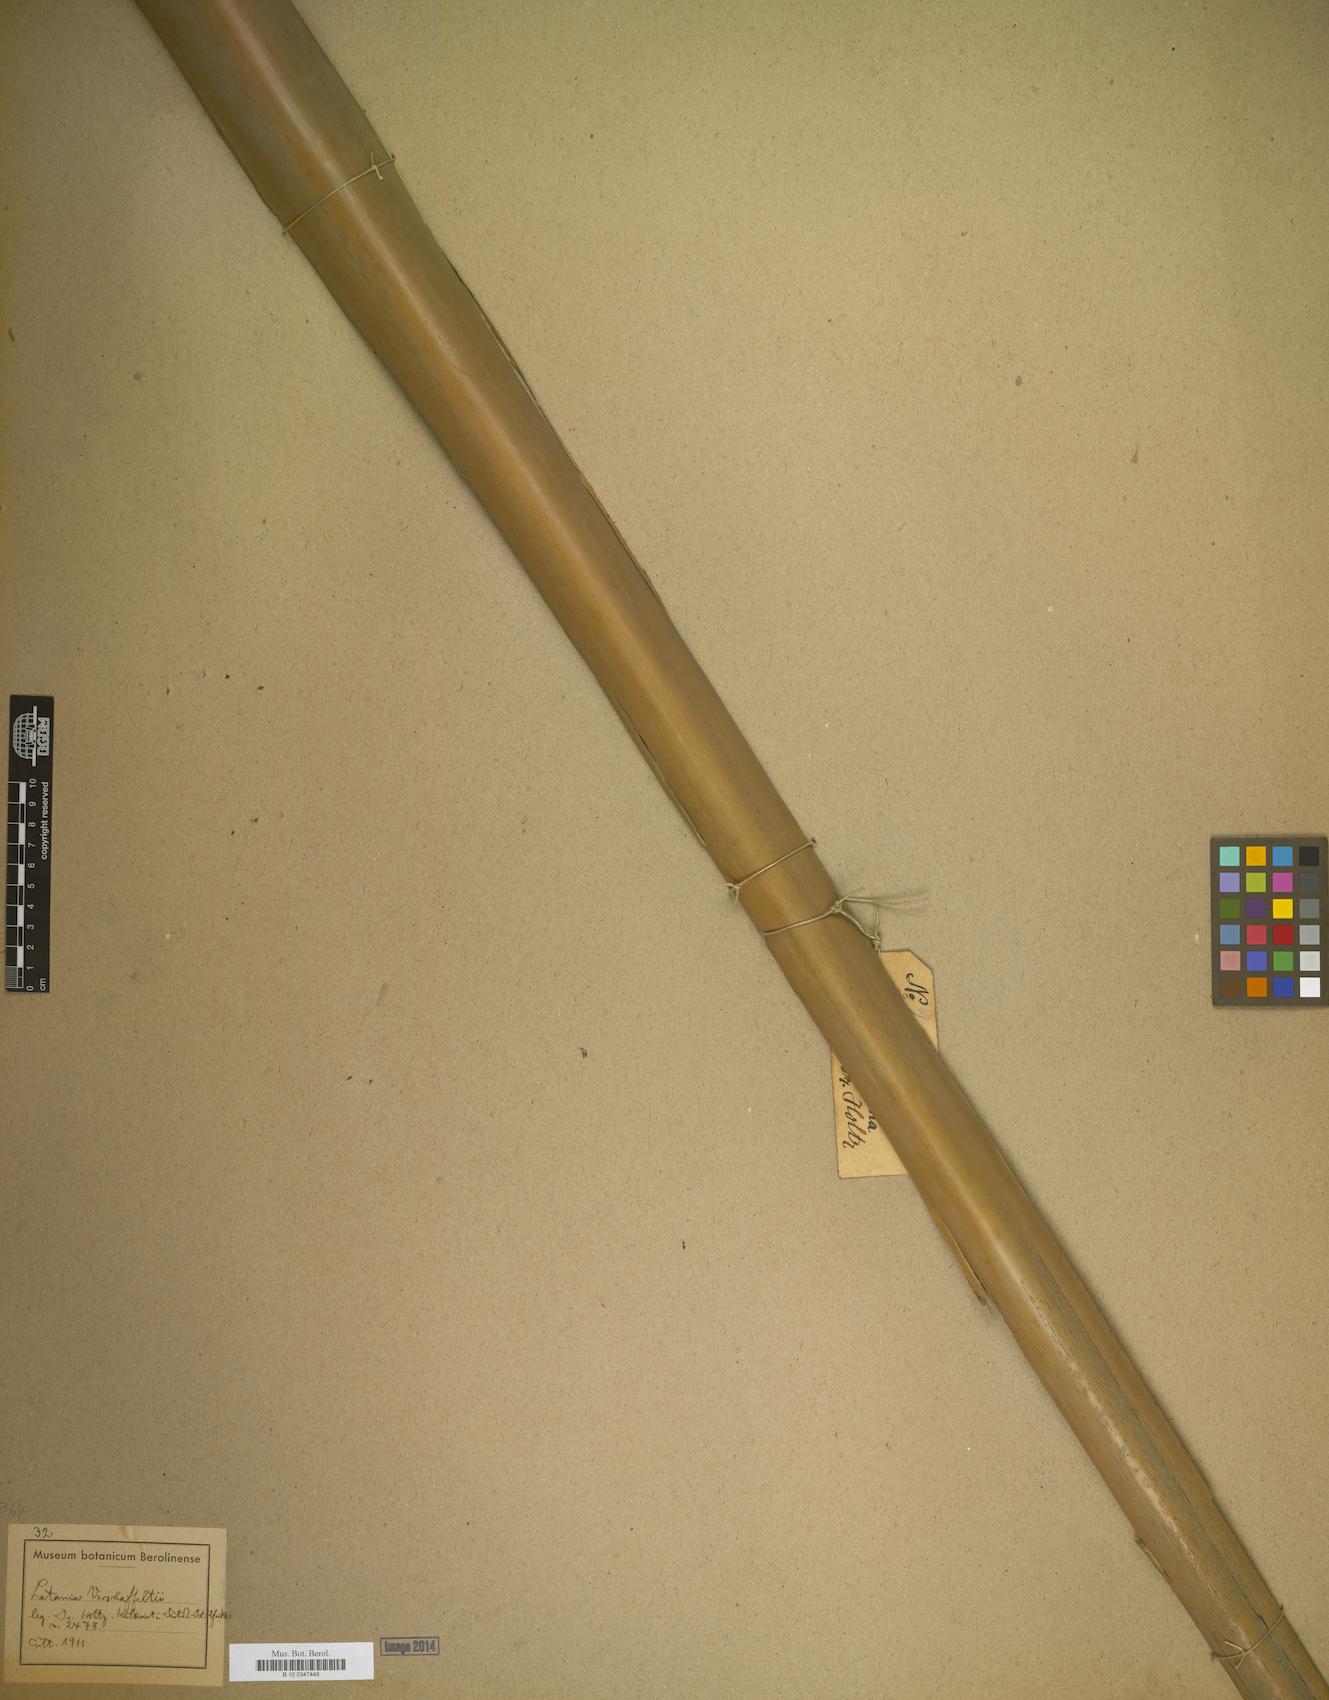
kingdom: Plantae
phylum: Tracheophyta
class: Liliopsida
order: Arecales
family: Arecaceae
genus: Latania
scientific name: Latania
